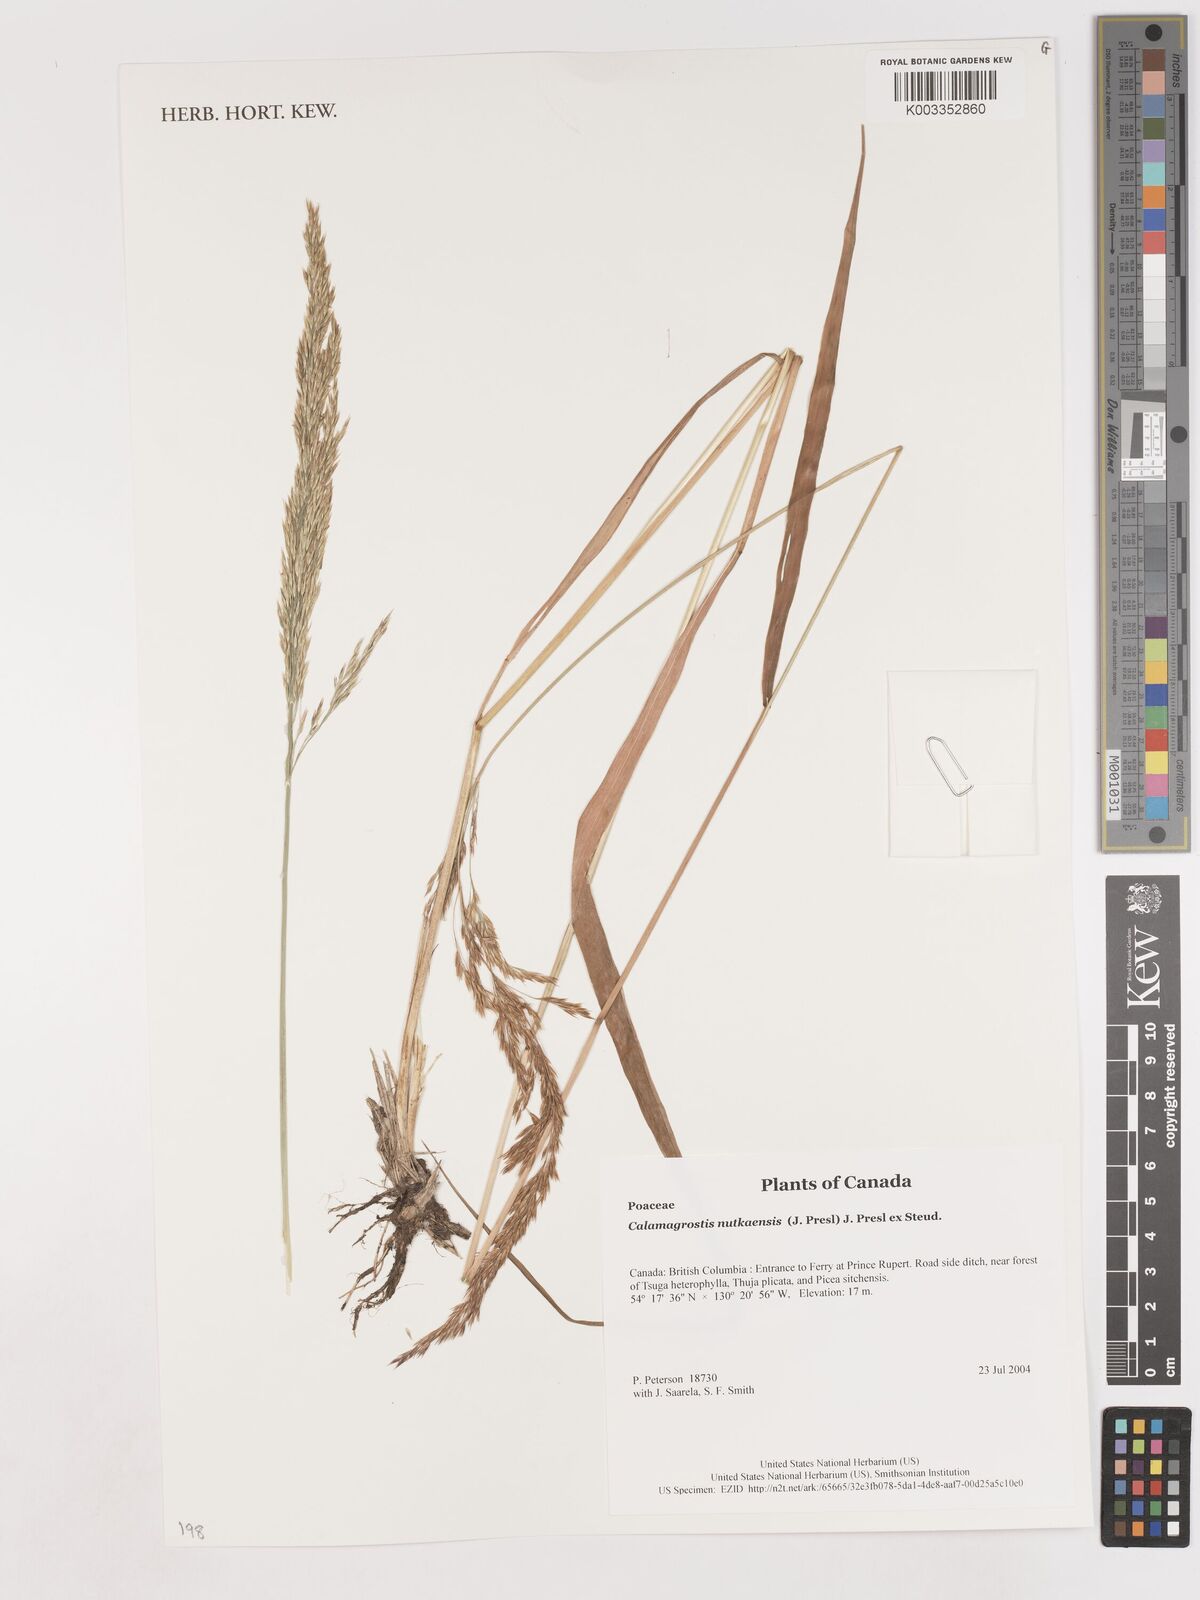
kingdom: Plantae
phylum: Tracheophyta
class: Liliopsida
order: Poales
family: Poaceae
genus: Calamagrostis
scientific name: Calamagrostis nutkaensis
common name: Pacific reed grass
